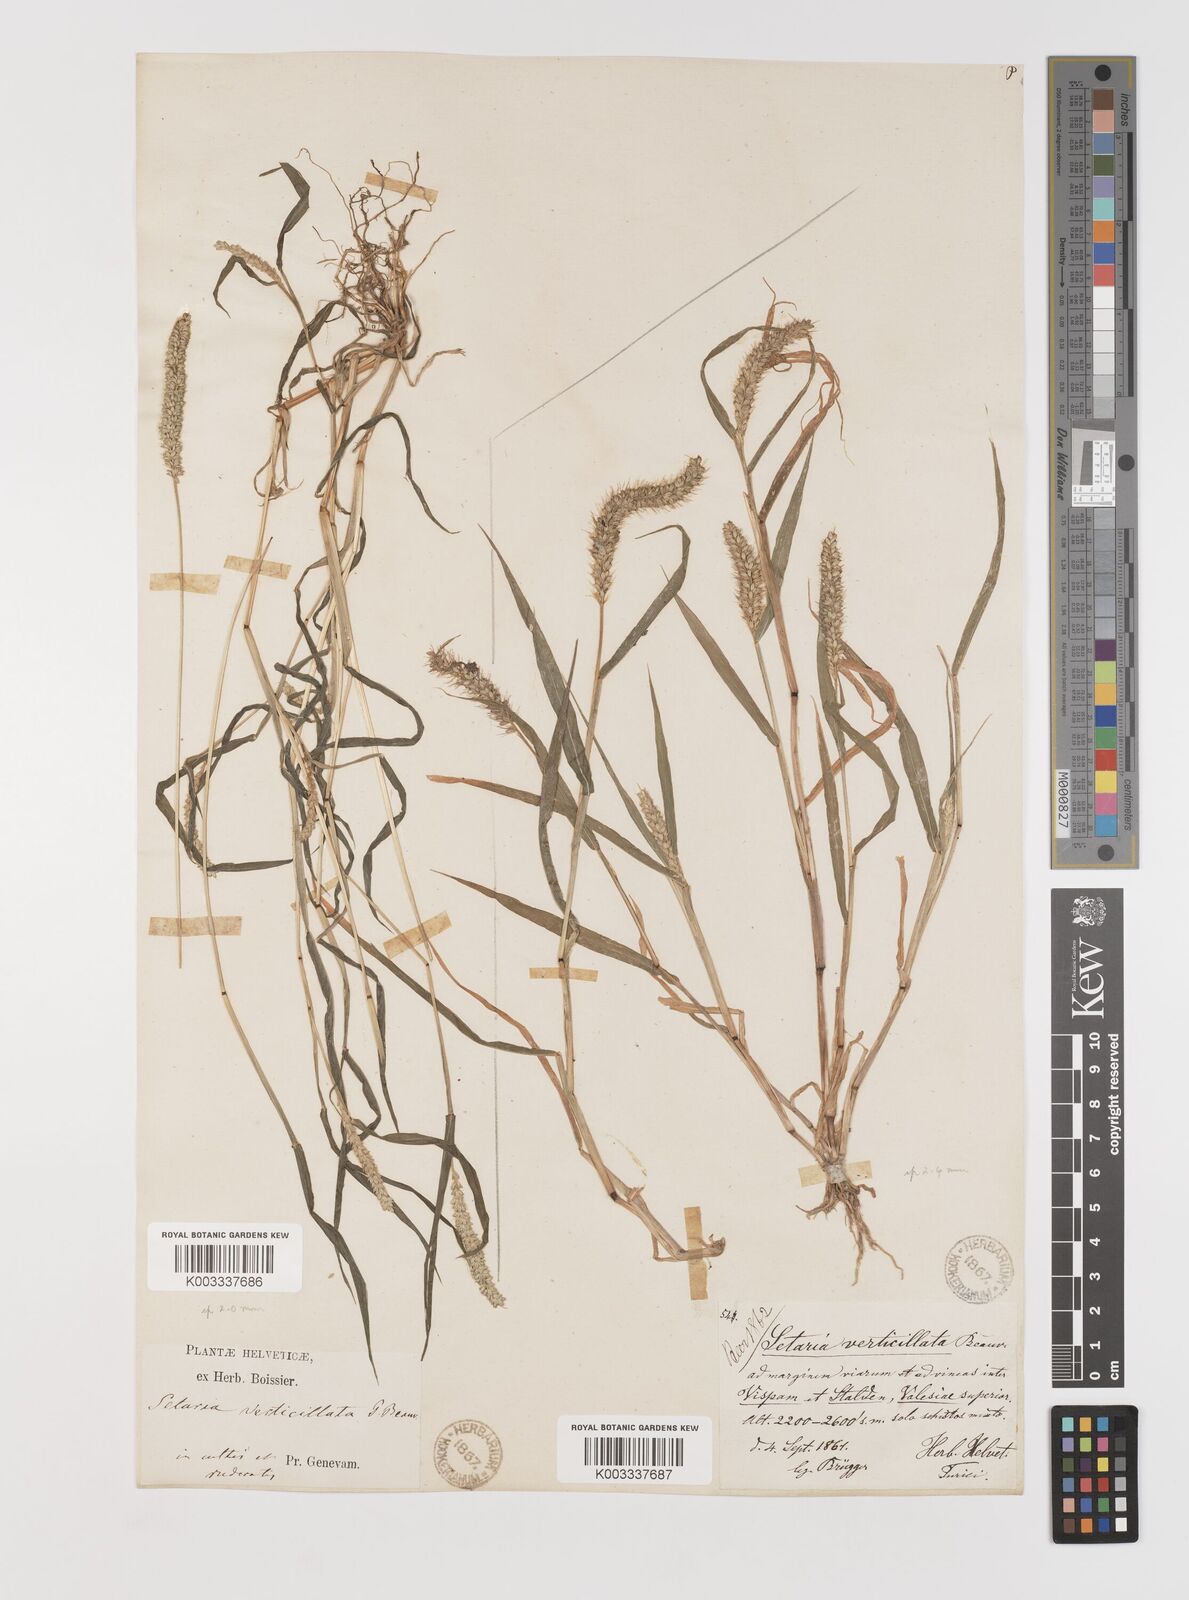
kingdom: Plantae
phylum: Tracheophyta
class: Liliopsida
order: Poales
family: Poaceae
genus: Setaria
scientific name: Setaria verticillata
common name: Hooked bristlegrass
